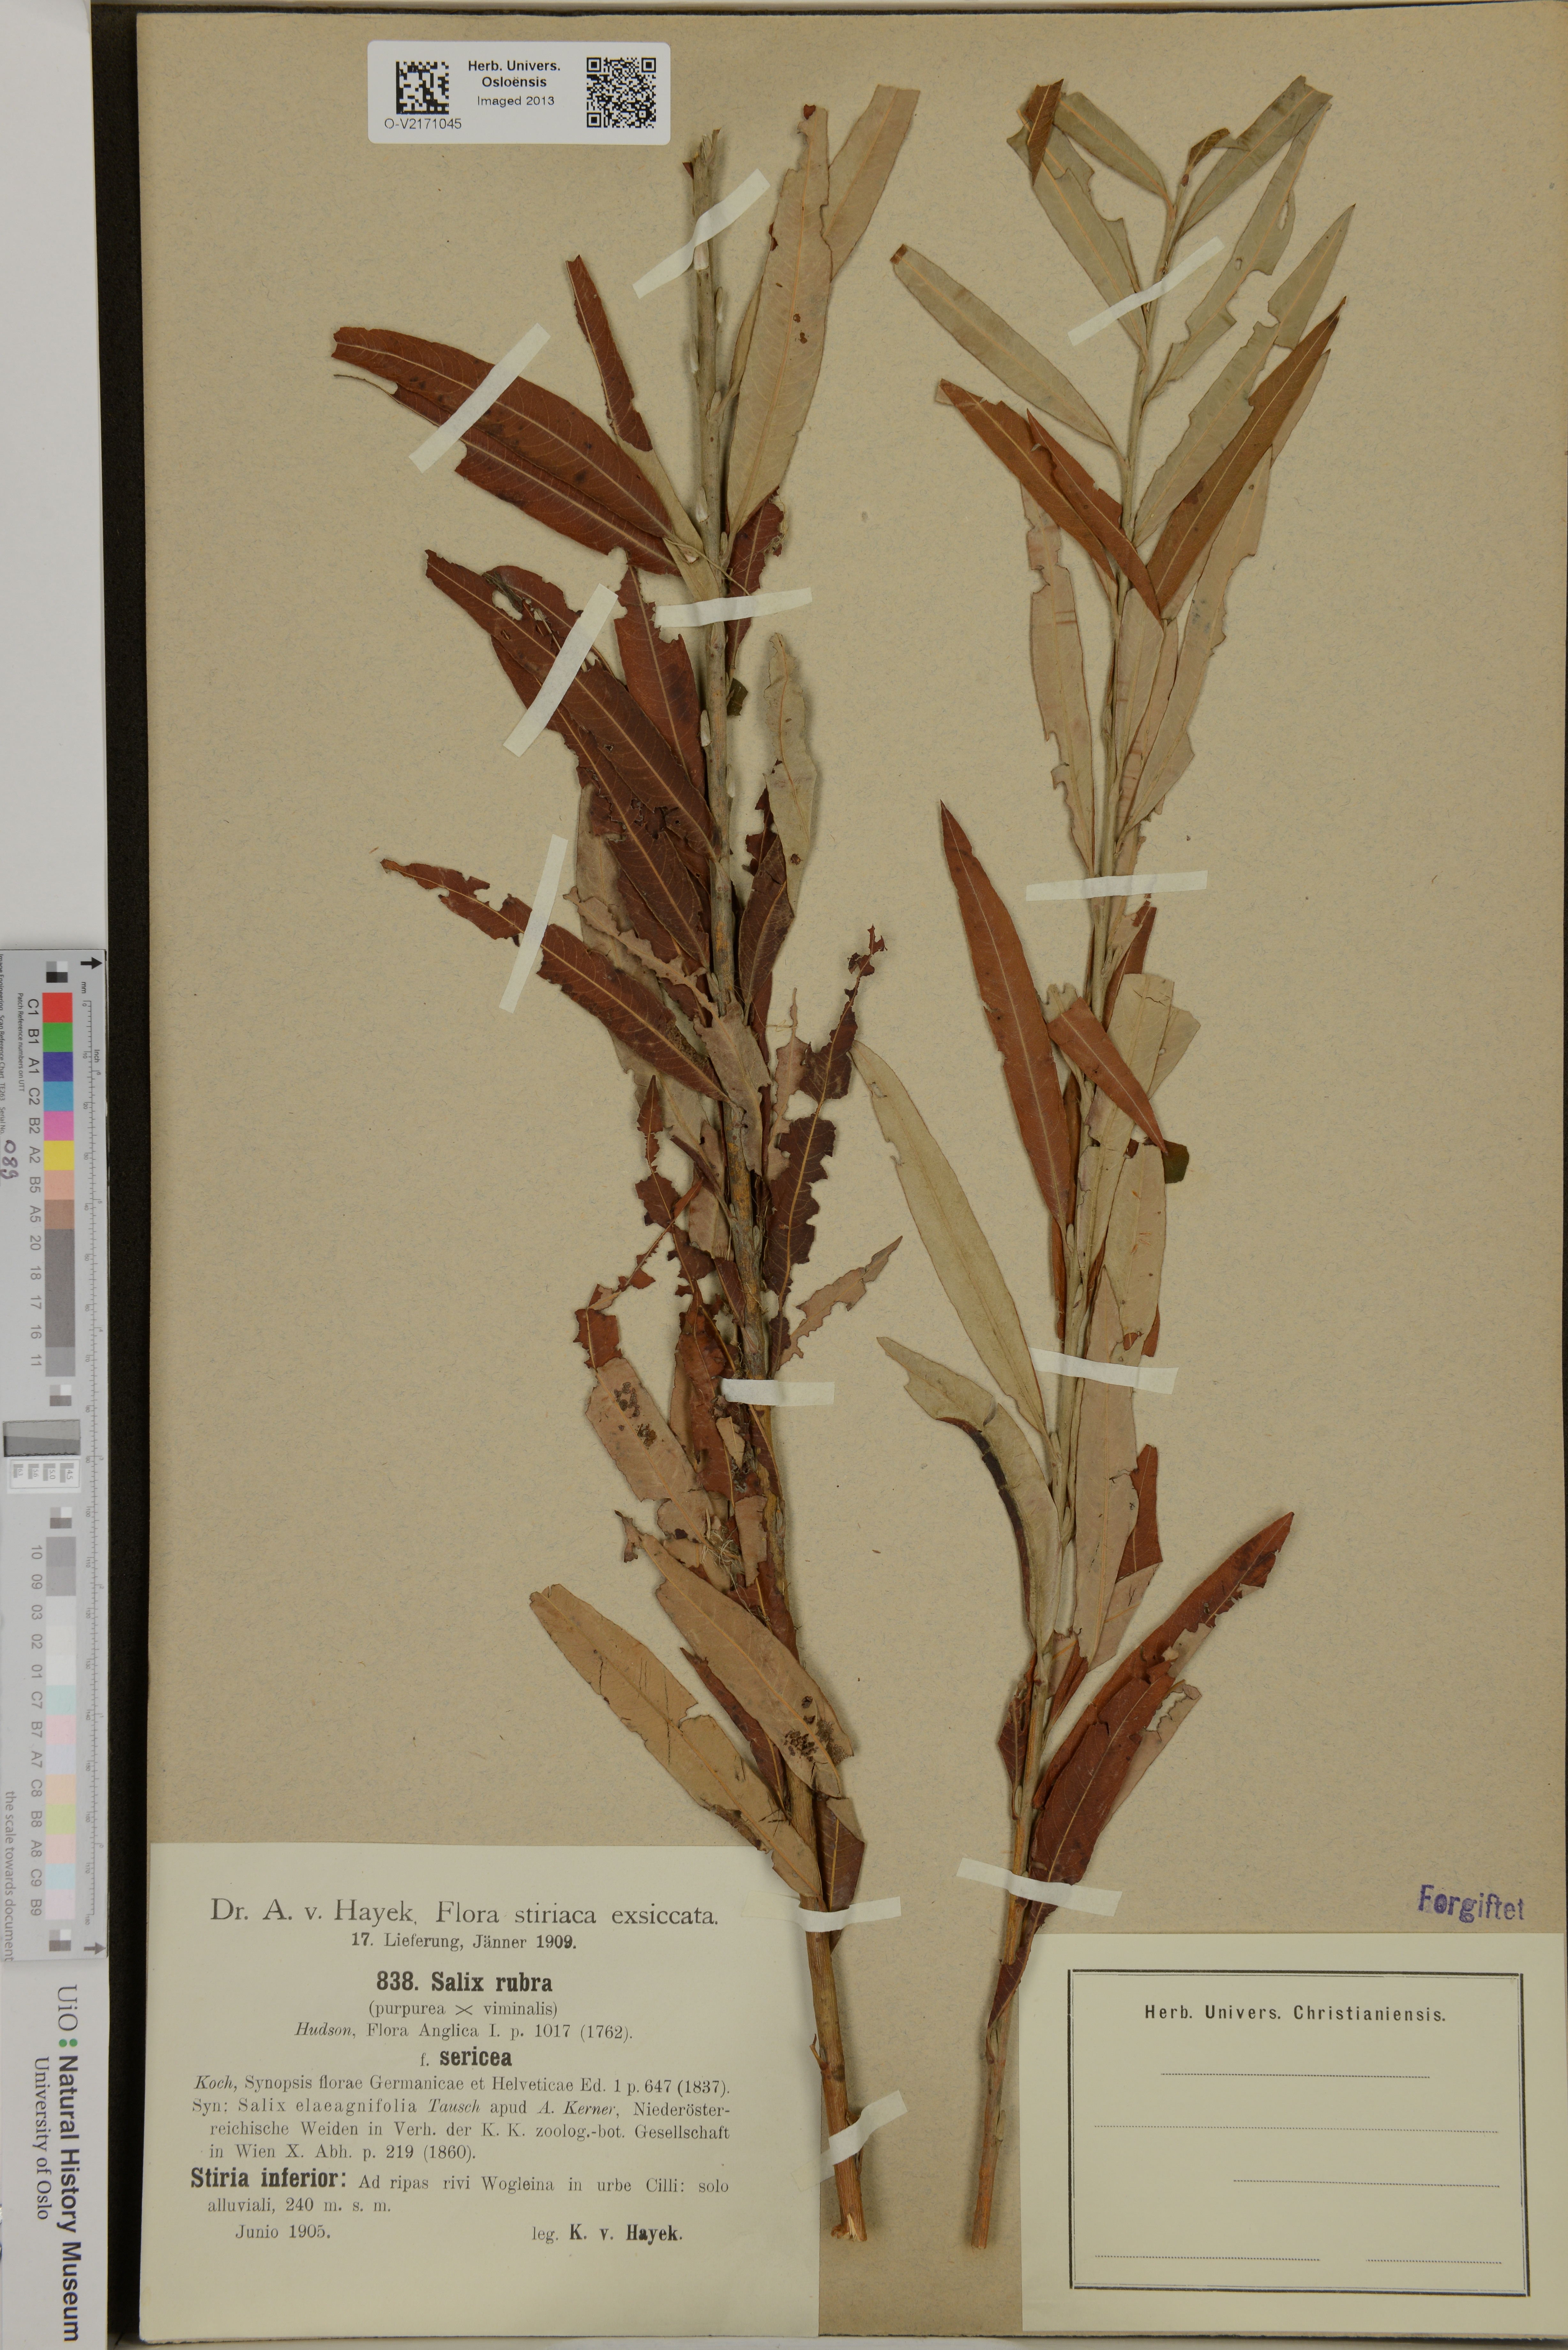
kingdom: Plantae
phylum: Tracheophyta
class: Magnoliopsida
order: Malpighiales
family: Salicaceae
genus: Salix
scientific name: Salix
